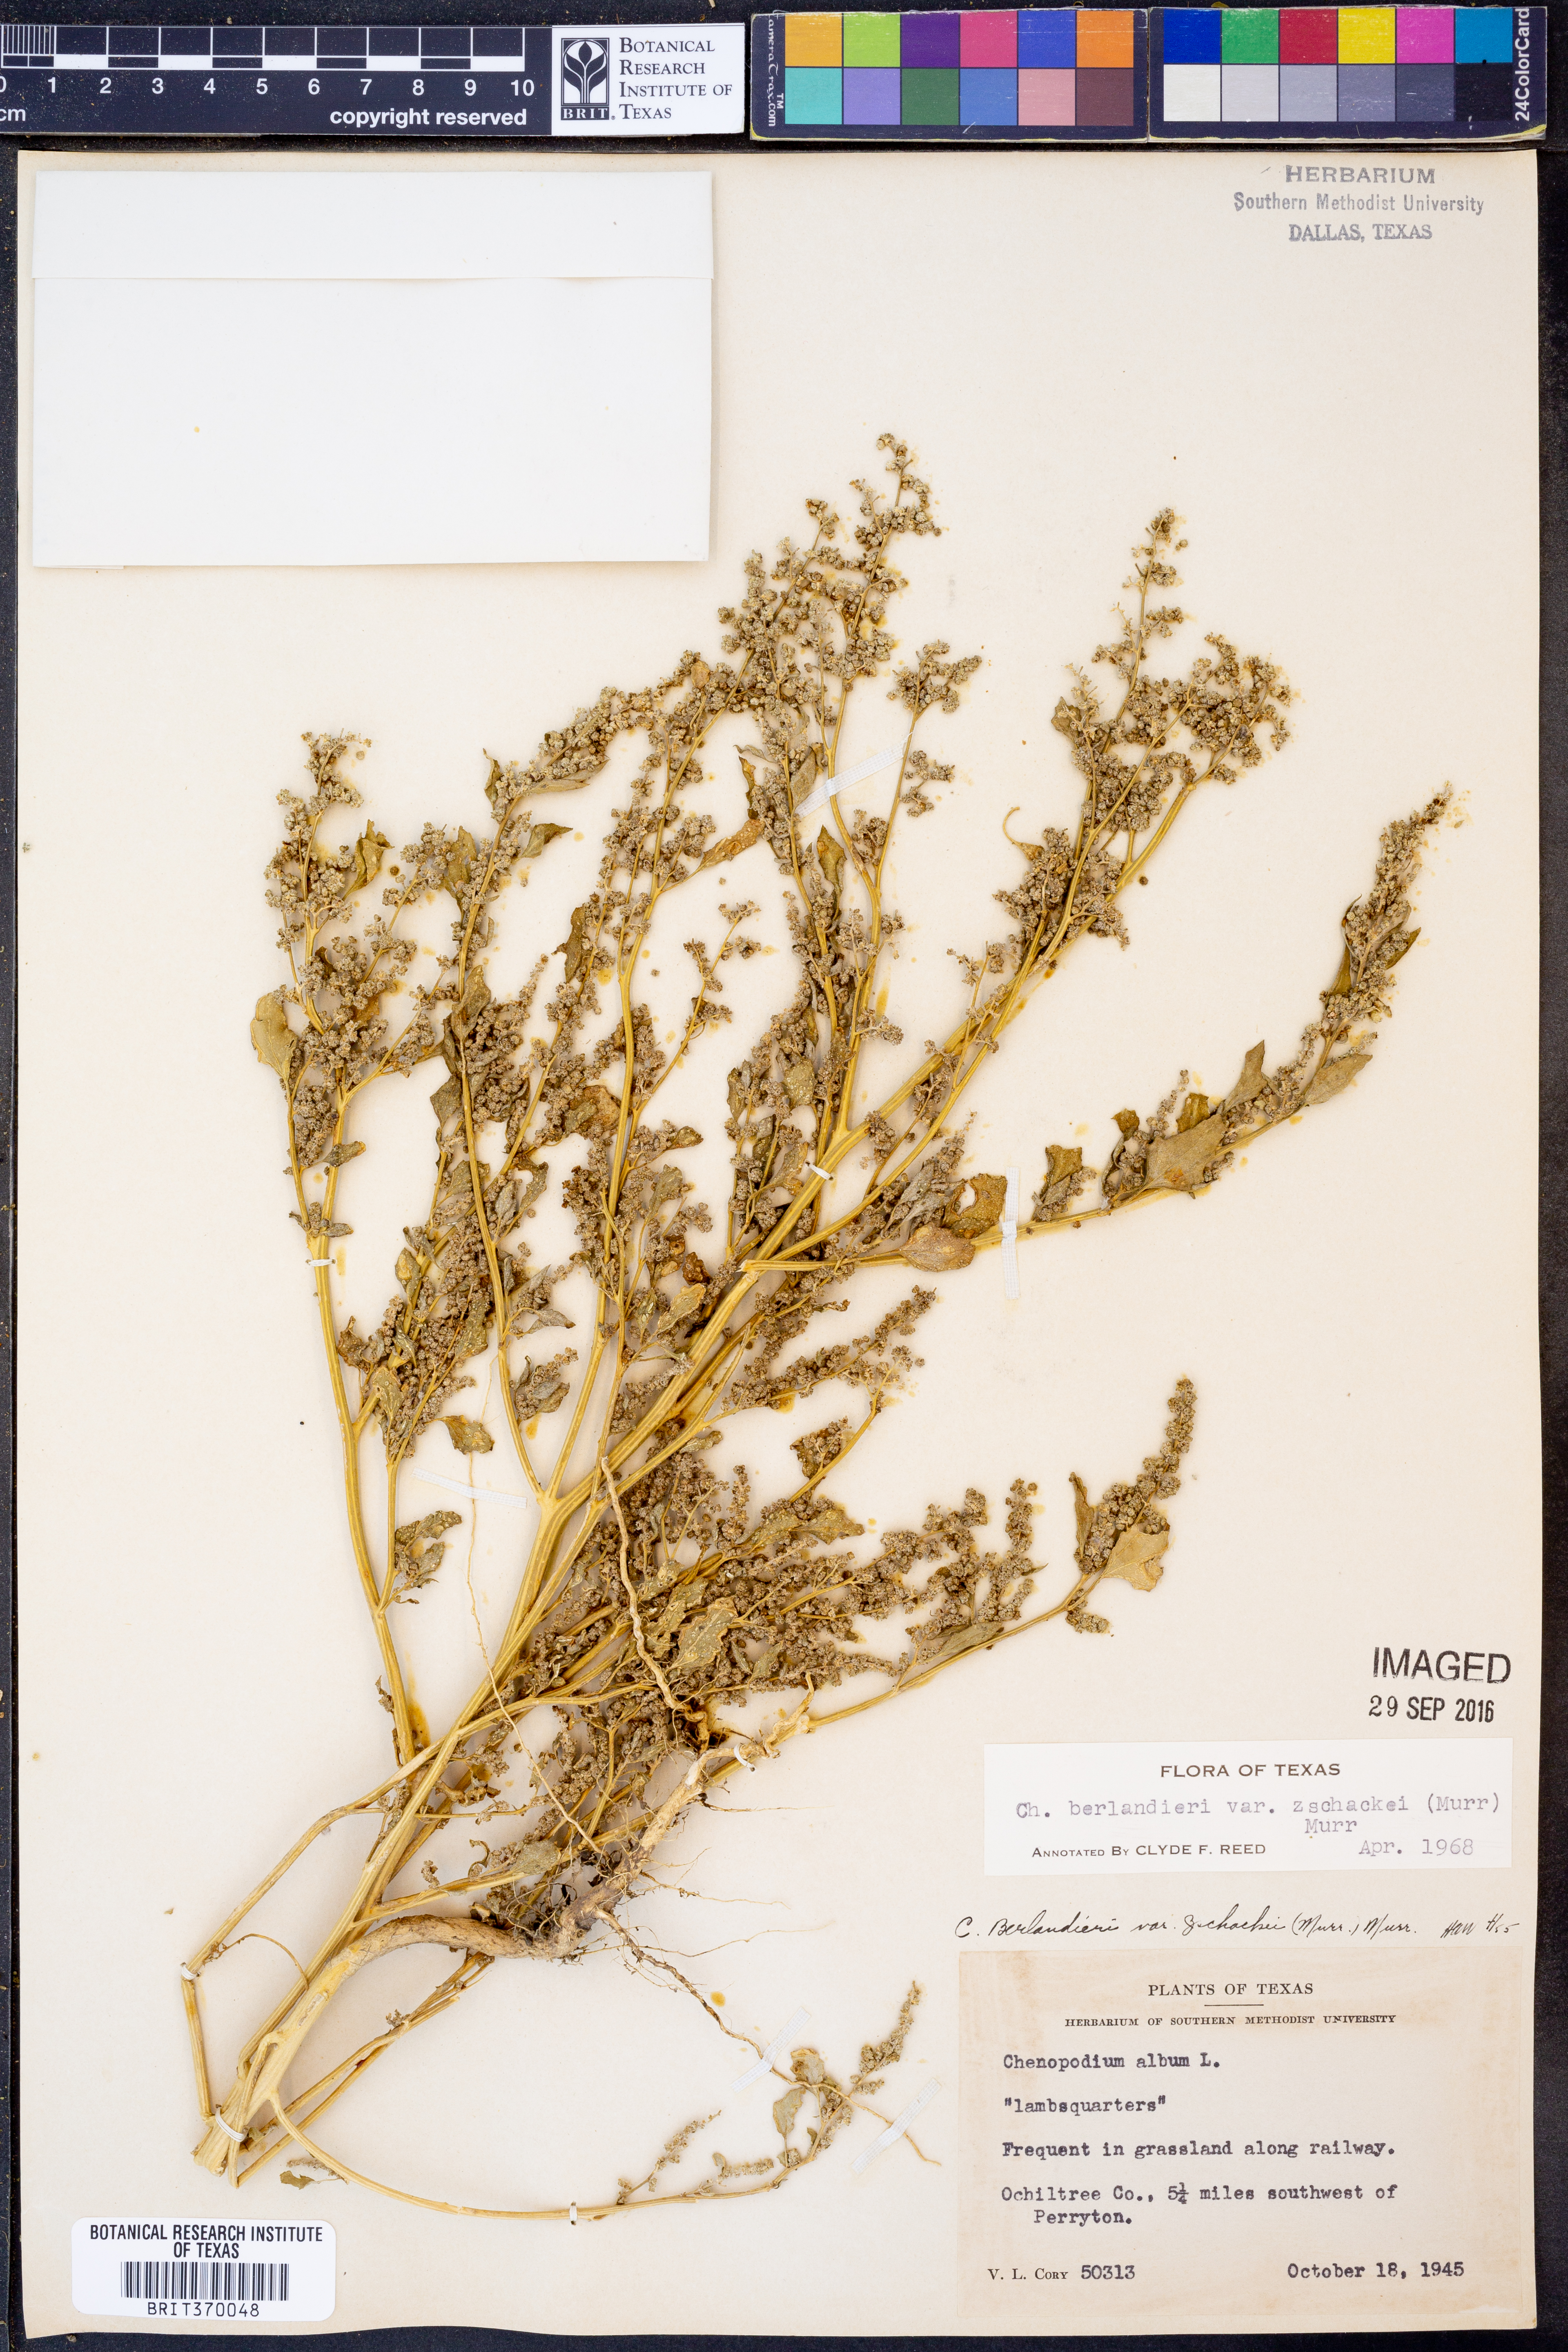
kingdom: Plantae
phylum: Tracheophyta
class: Magnoliopsida
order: Caryophyllales
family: Amaranthaceae
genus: Chenopodium
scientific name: Chenopodium berlandieri
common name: Pit-seed goosefoot
